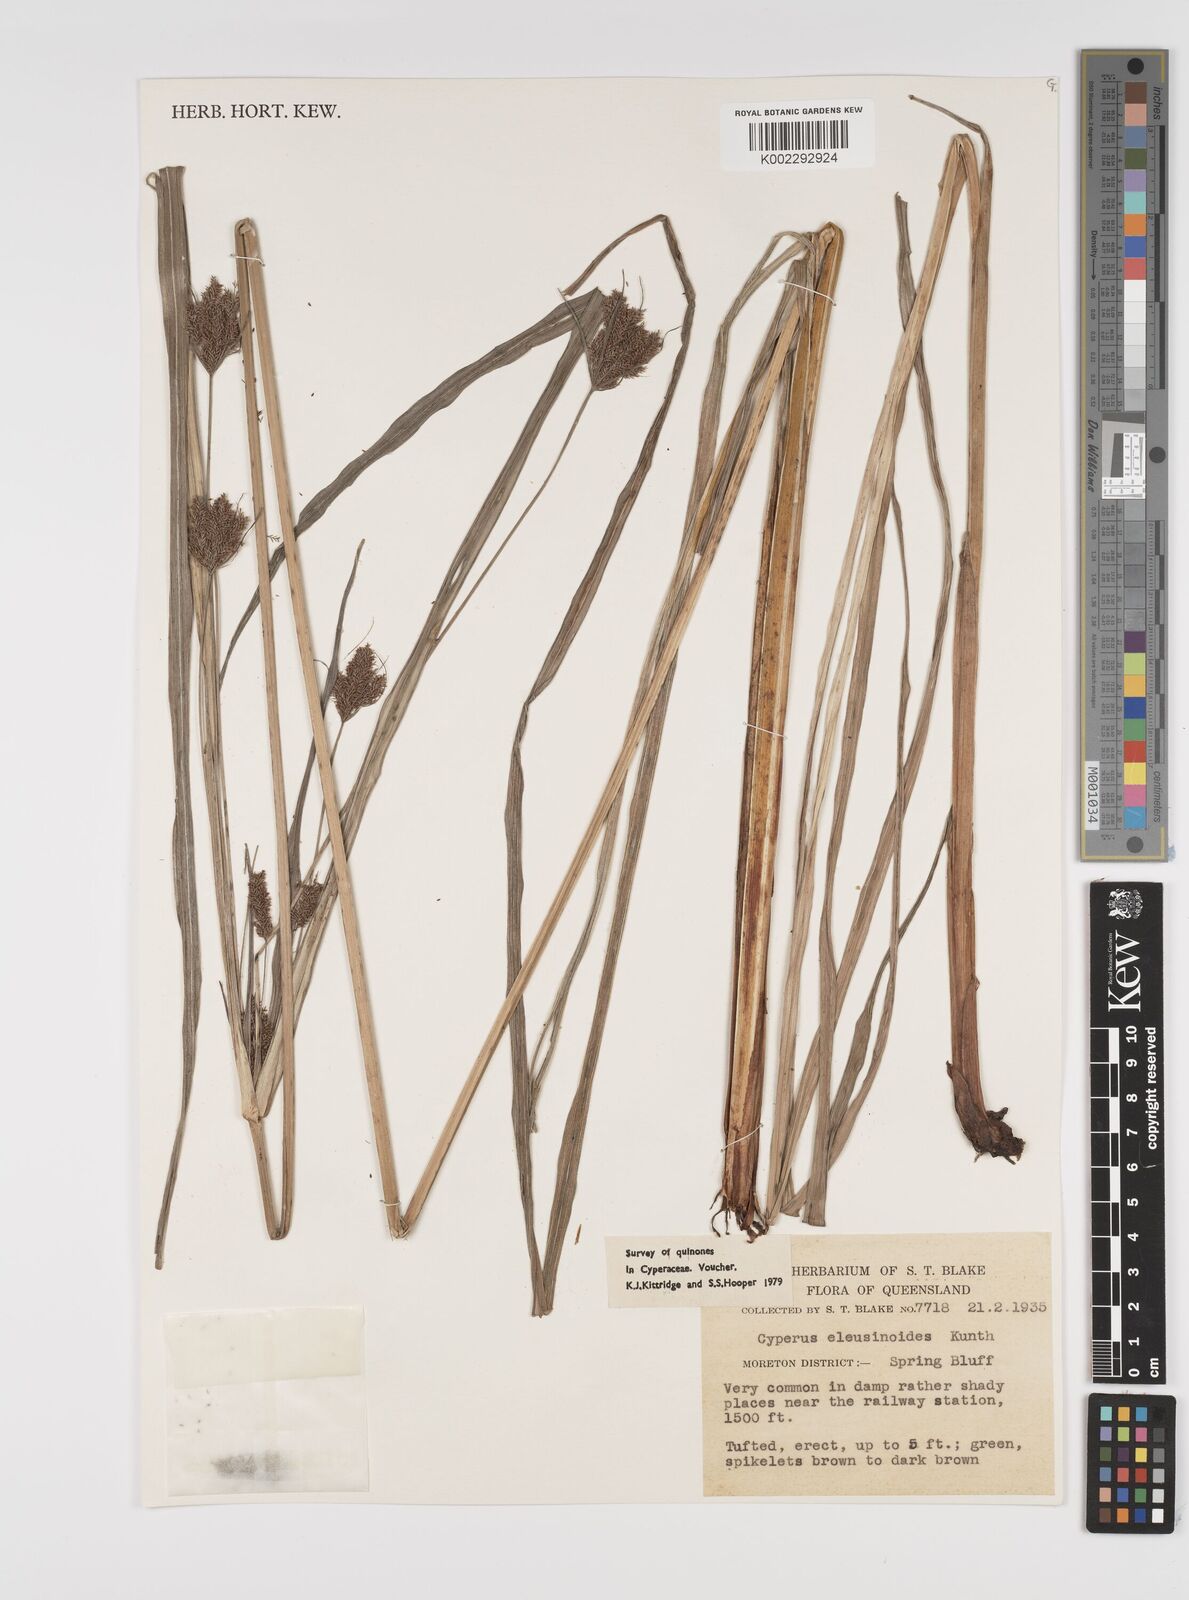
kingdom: Plantae
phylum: Tracheophyta
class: Liliopsida
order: Poales
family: Cyperaceae
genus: Cyperus
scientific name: Cyperus nutans
